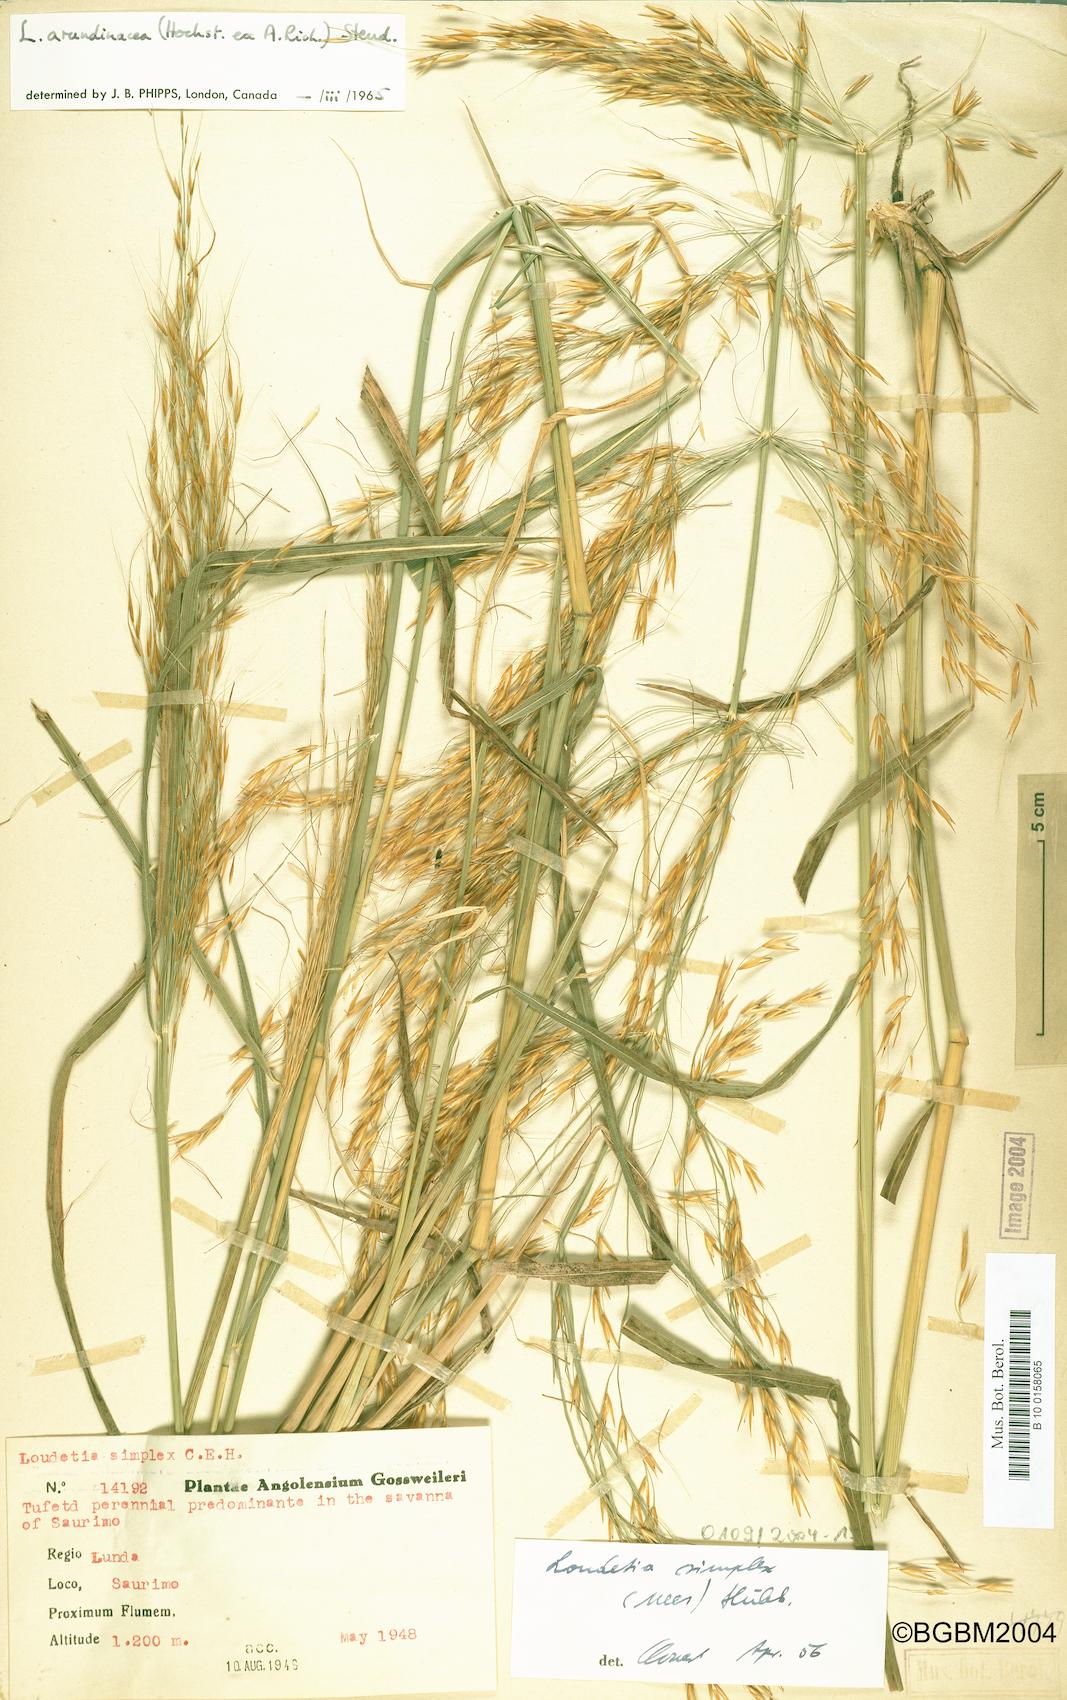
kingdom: Plantae
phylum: Tracheophyta
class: Liliopsida
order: Poales
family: Poaceae
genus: Loudetia
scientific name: Loudetia arundinacea
